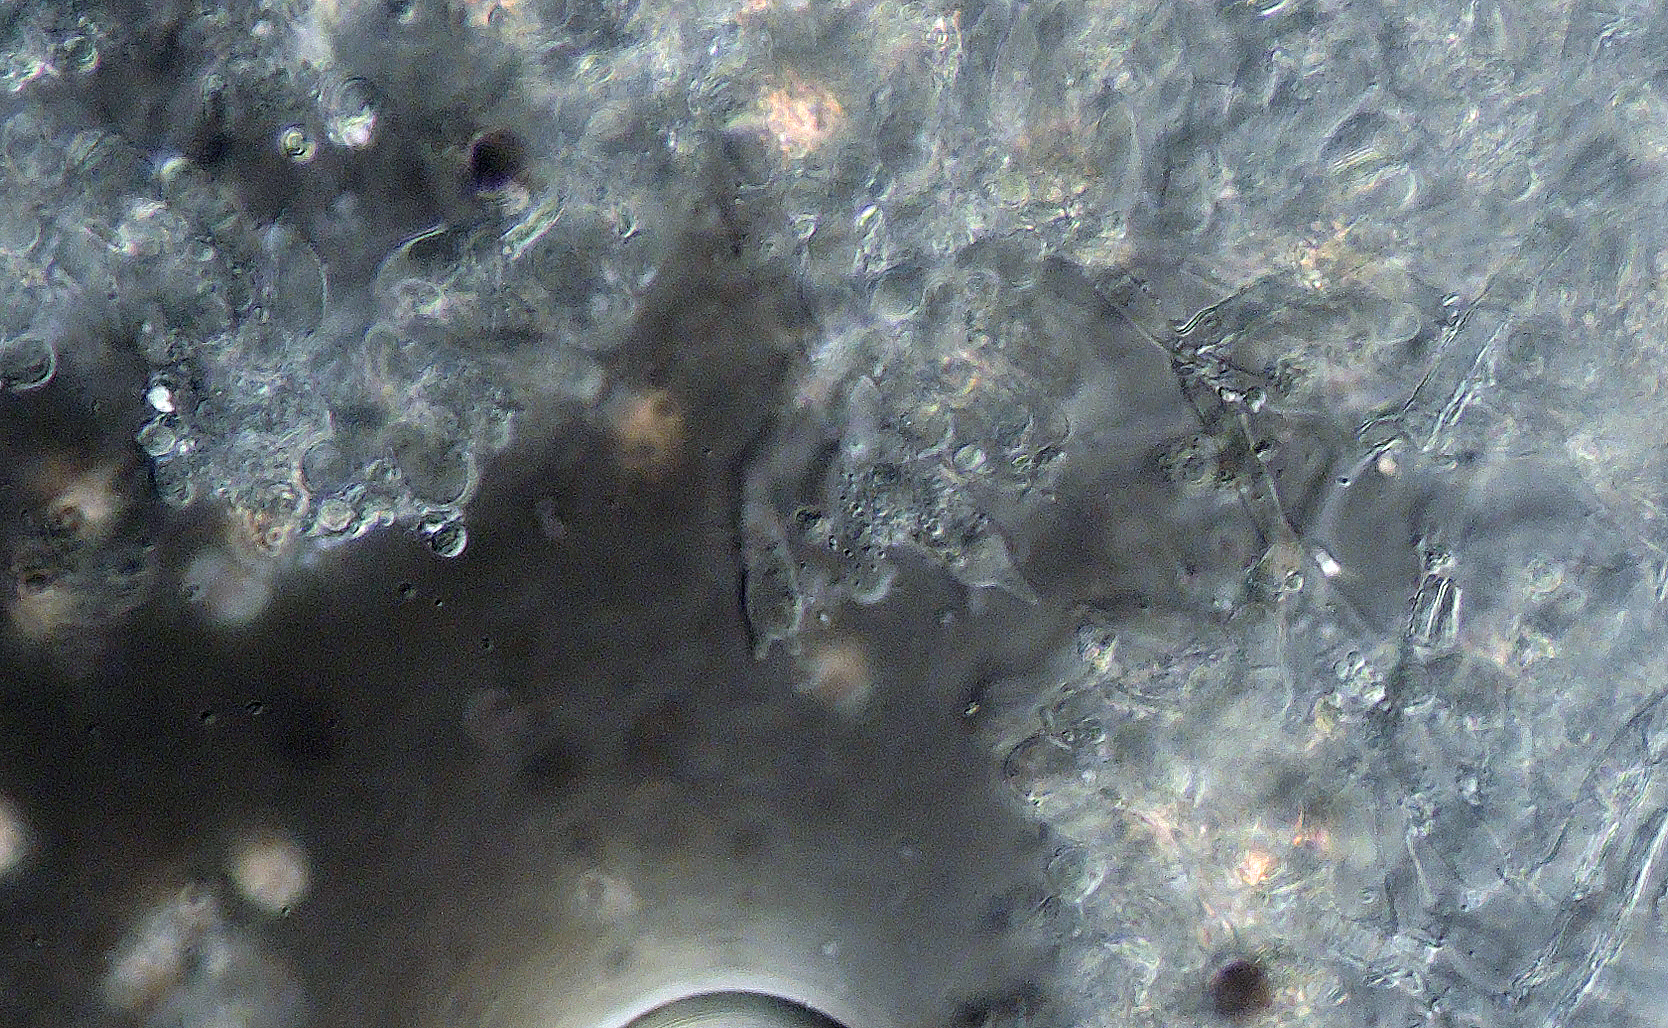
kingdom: Fungi
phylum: Basidiomycota
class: Agaricomycetes
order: Corticiales
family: Corticiaceae
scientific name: Corticiaceae
